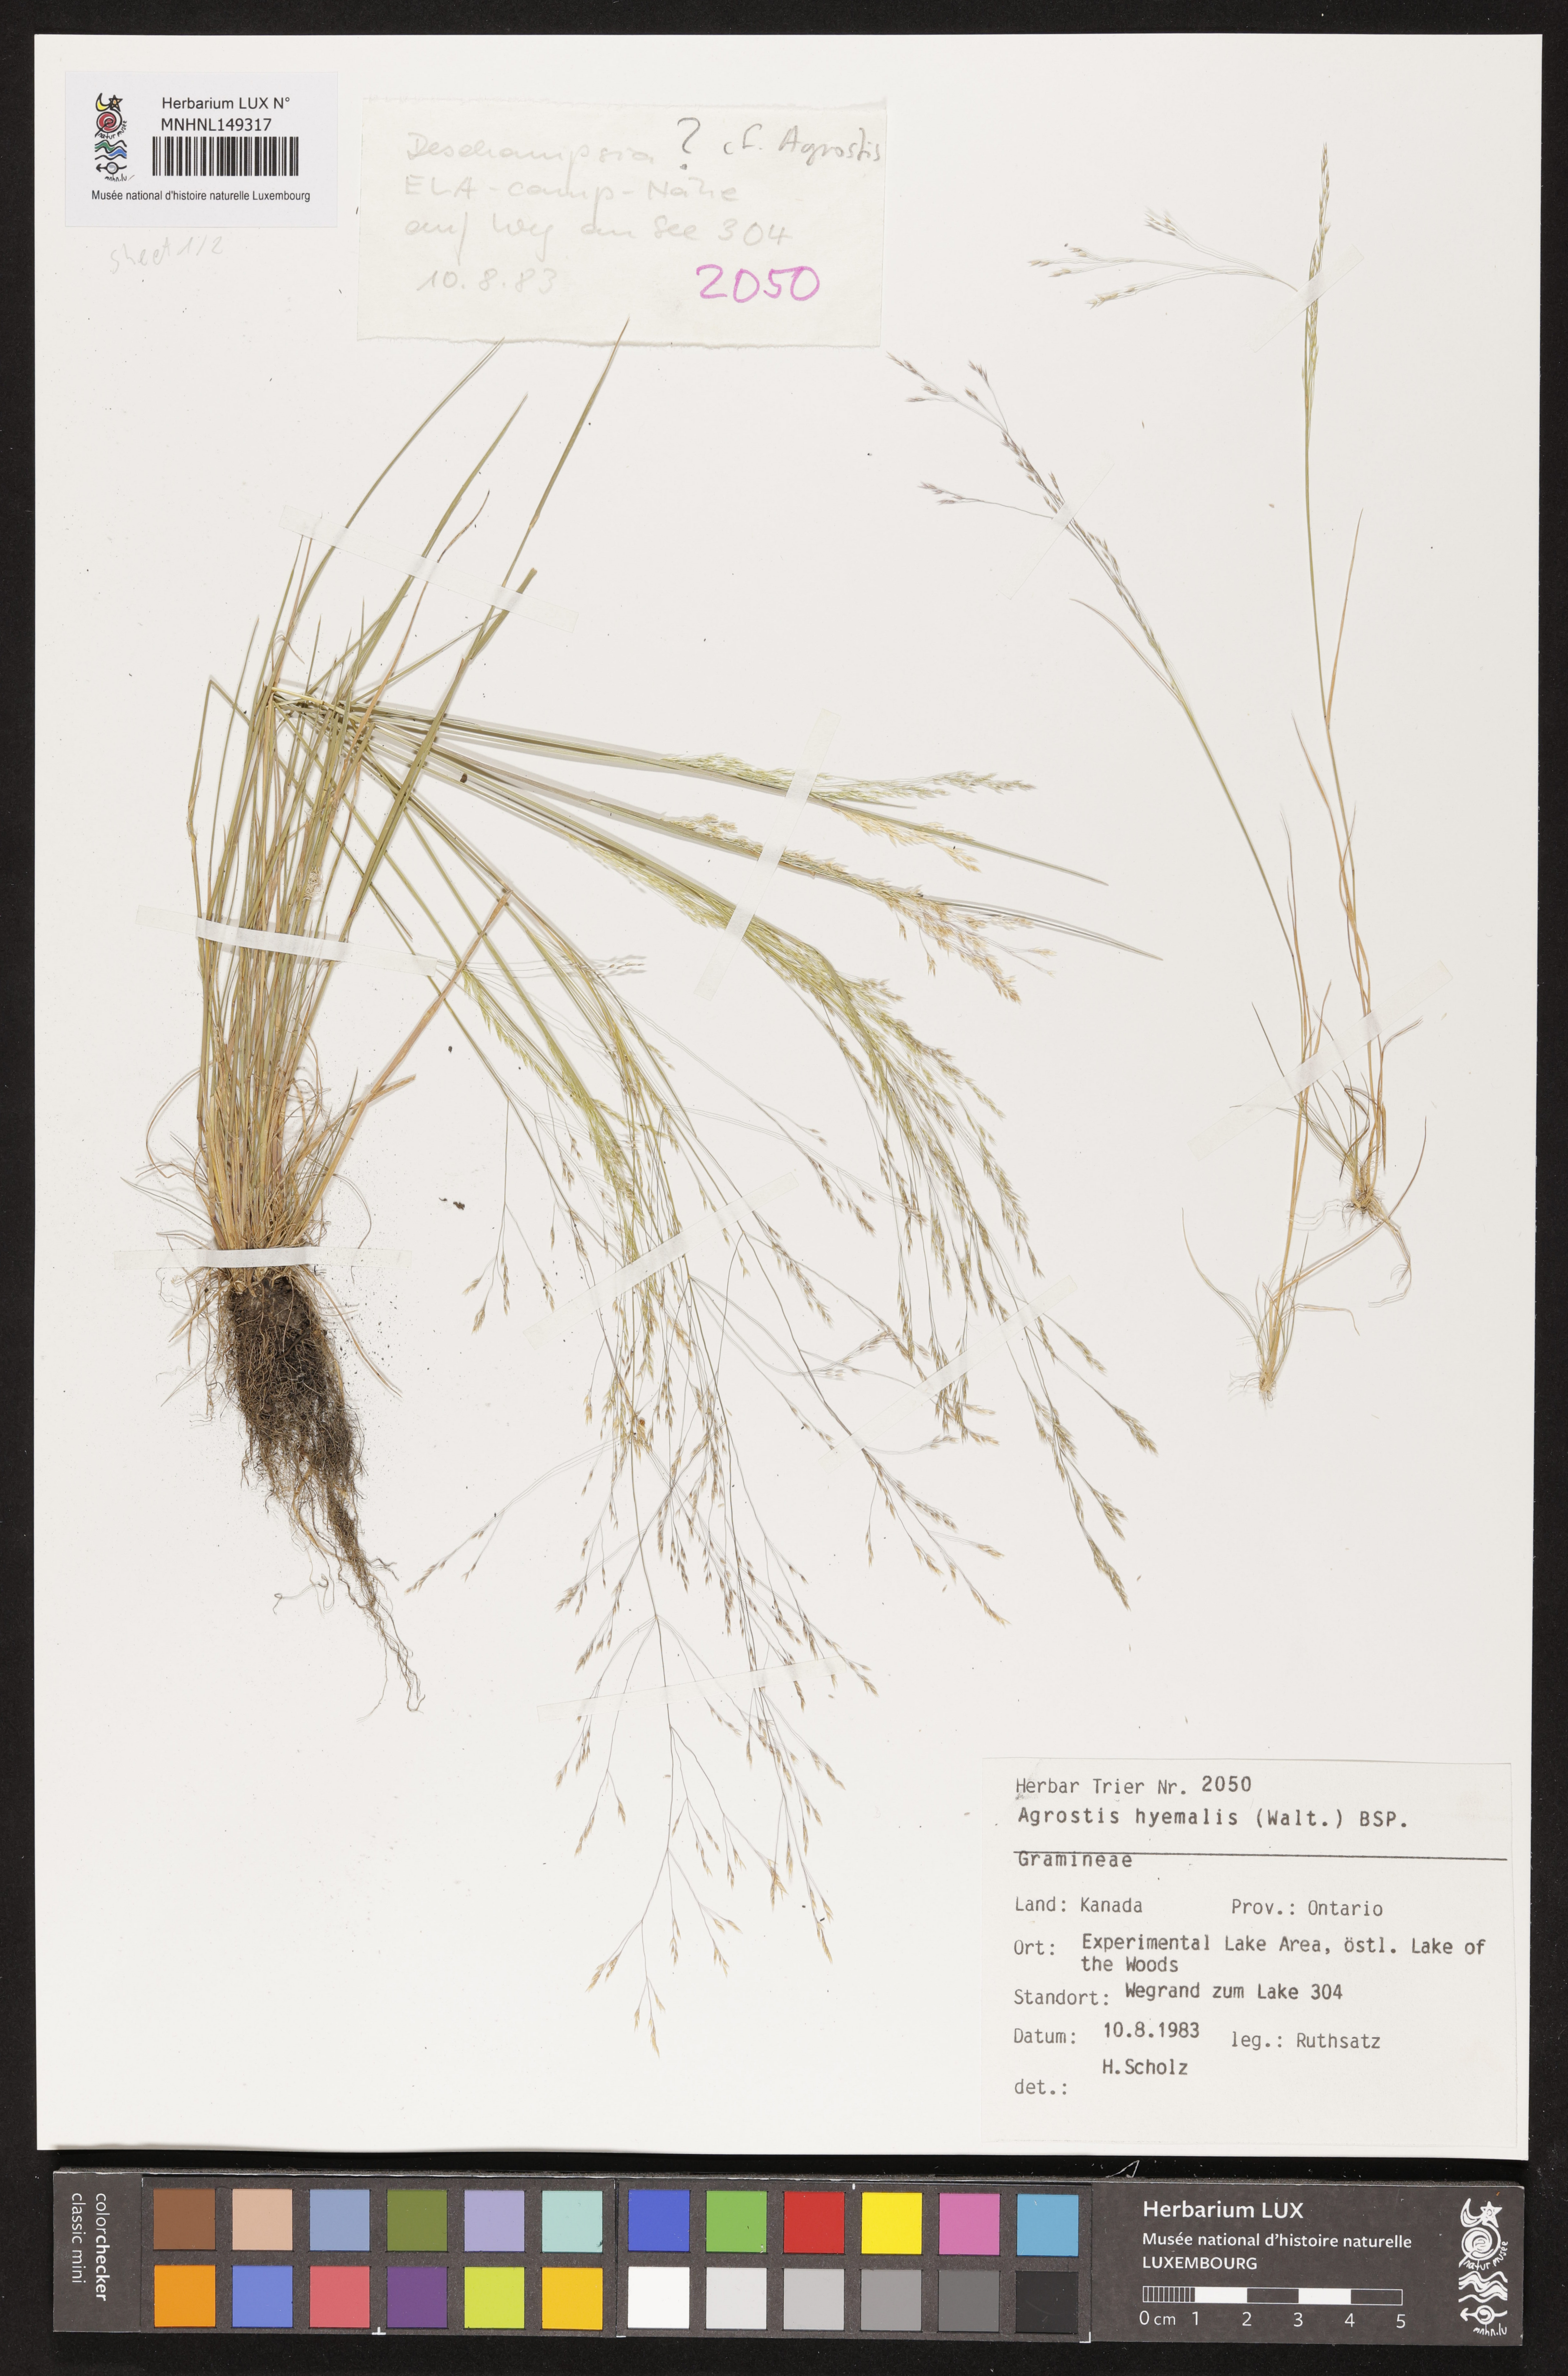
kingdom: Plantae
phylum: Tracheophyta
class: Liliopsida
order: Poales
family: Poaceae
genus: Agrostis
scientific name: Agrostis hyemalis
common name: Small bent
